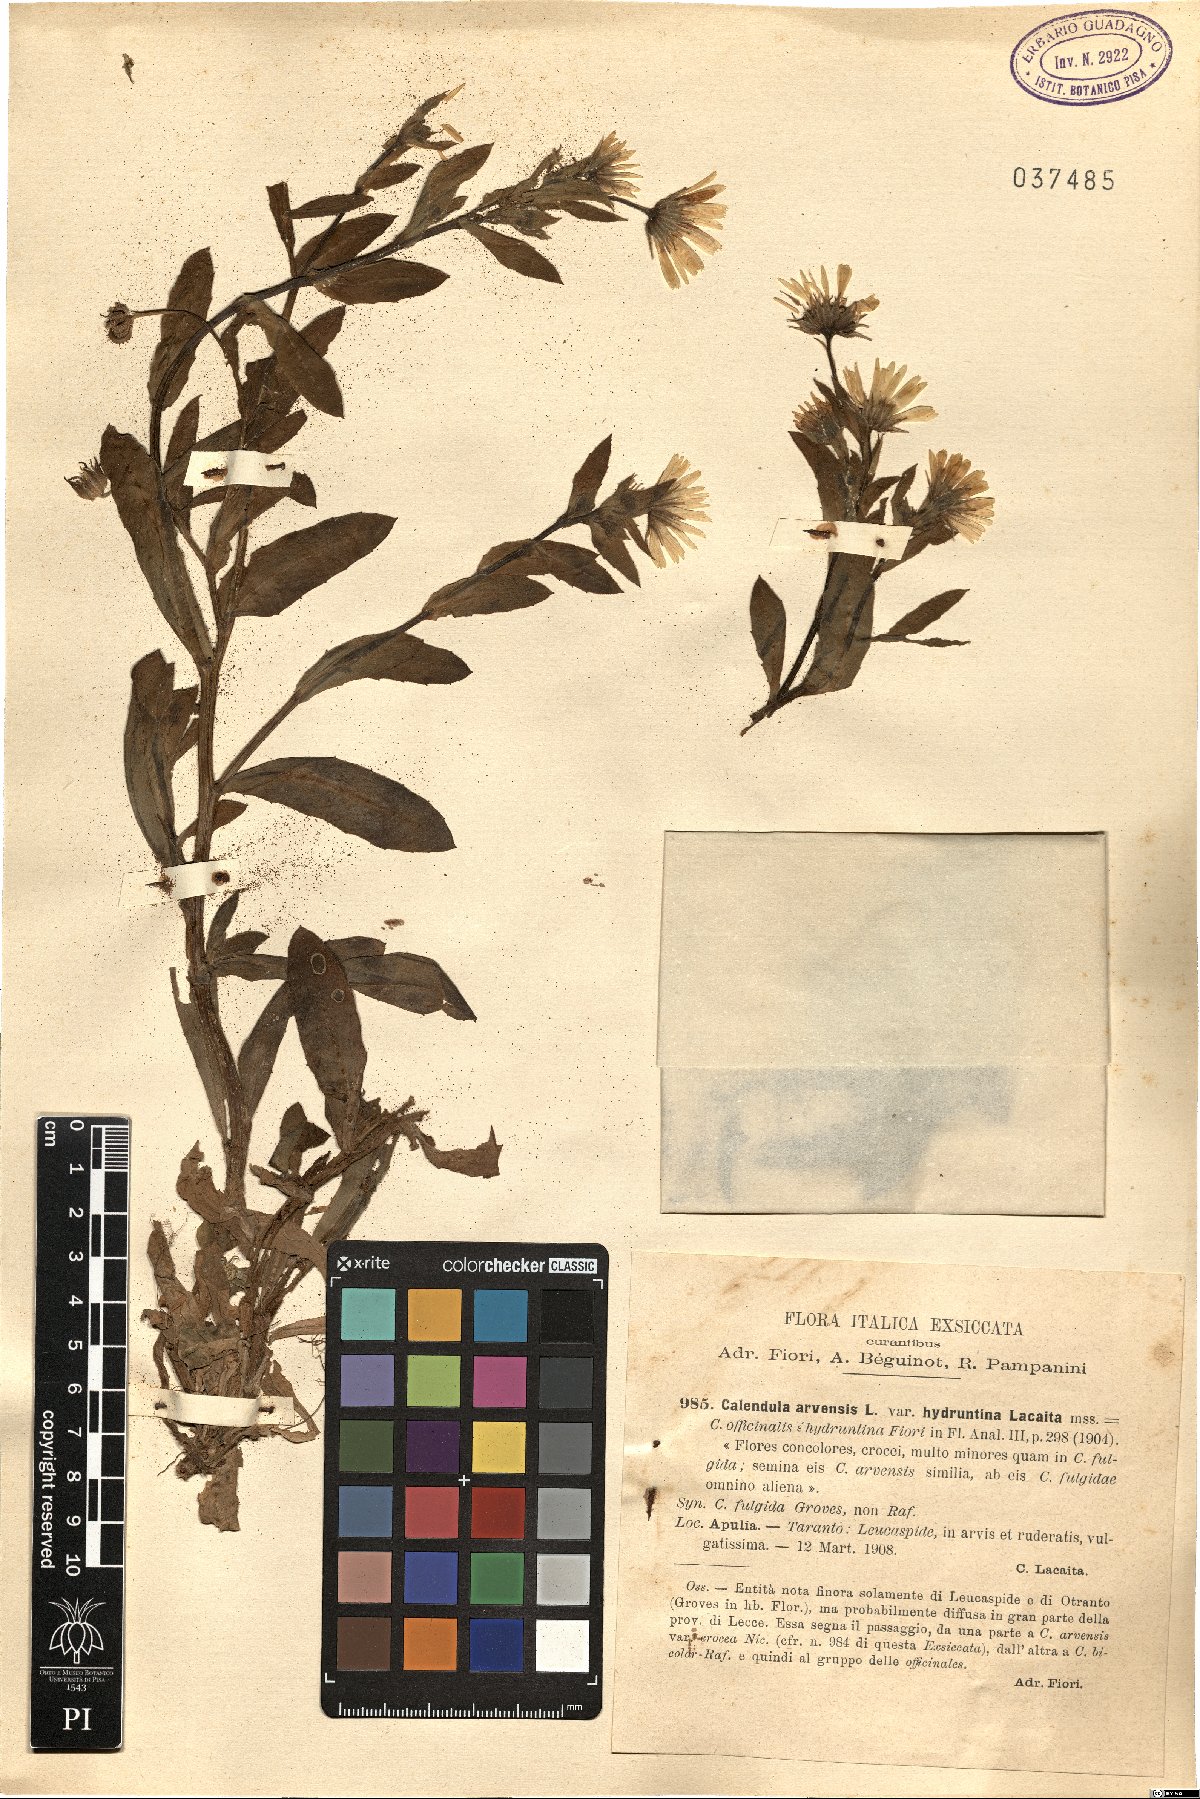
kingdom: Plantae
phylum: Tracheophyta
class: Magnoliopsida
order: Asterales
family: Asteraceae
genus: Calendula
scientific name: Calendula officinalis
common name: Pot marigold
